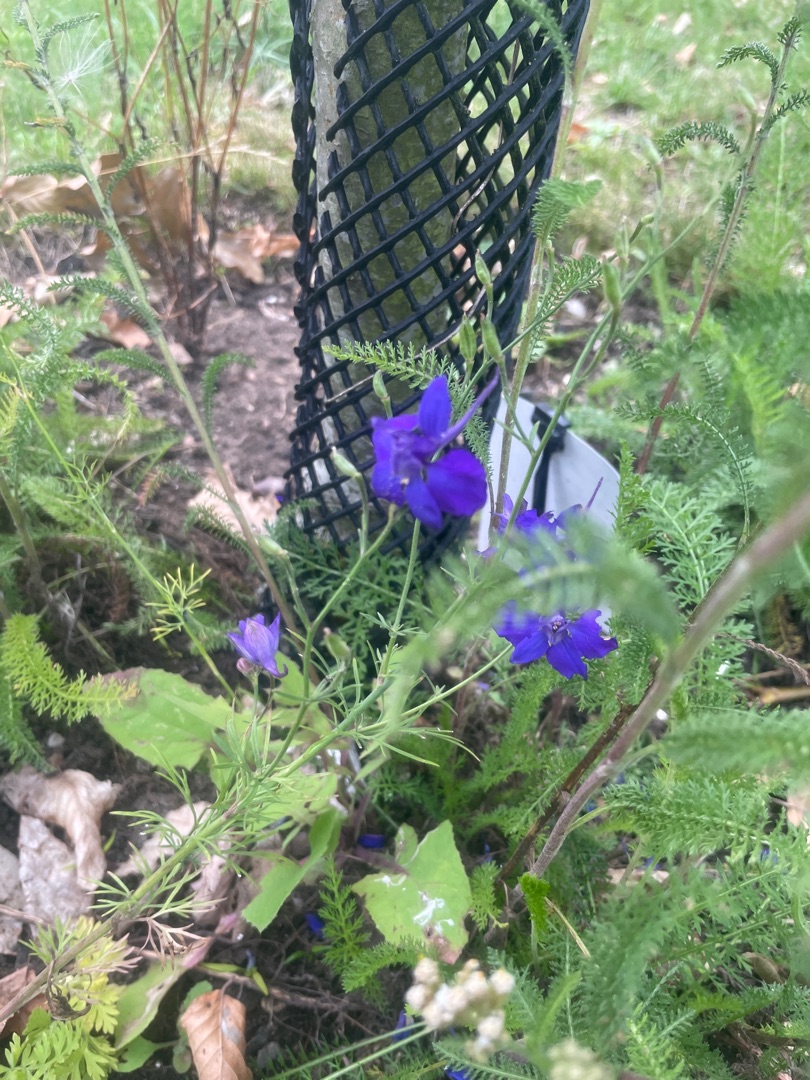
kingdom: Plantae
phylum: Tracheophyta
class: Magnoliopsida
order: Ranunculales
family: Ranunculaceae
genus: Delphinium
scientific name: Delphinium ajacis
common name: Have-ridderspore
